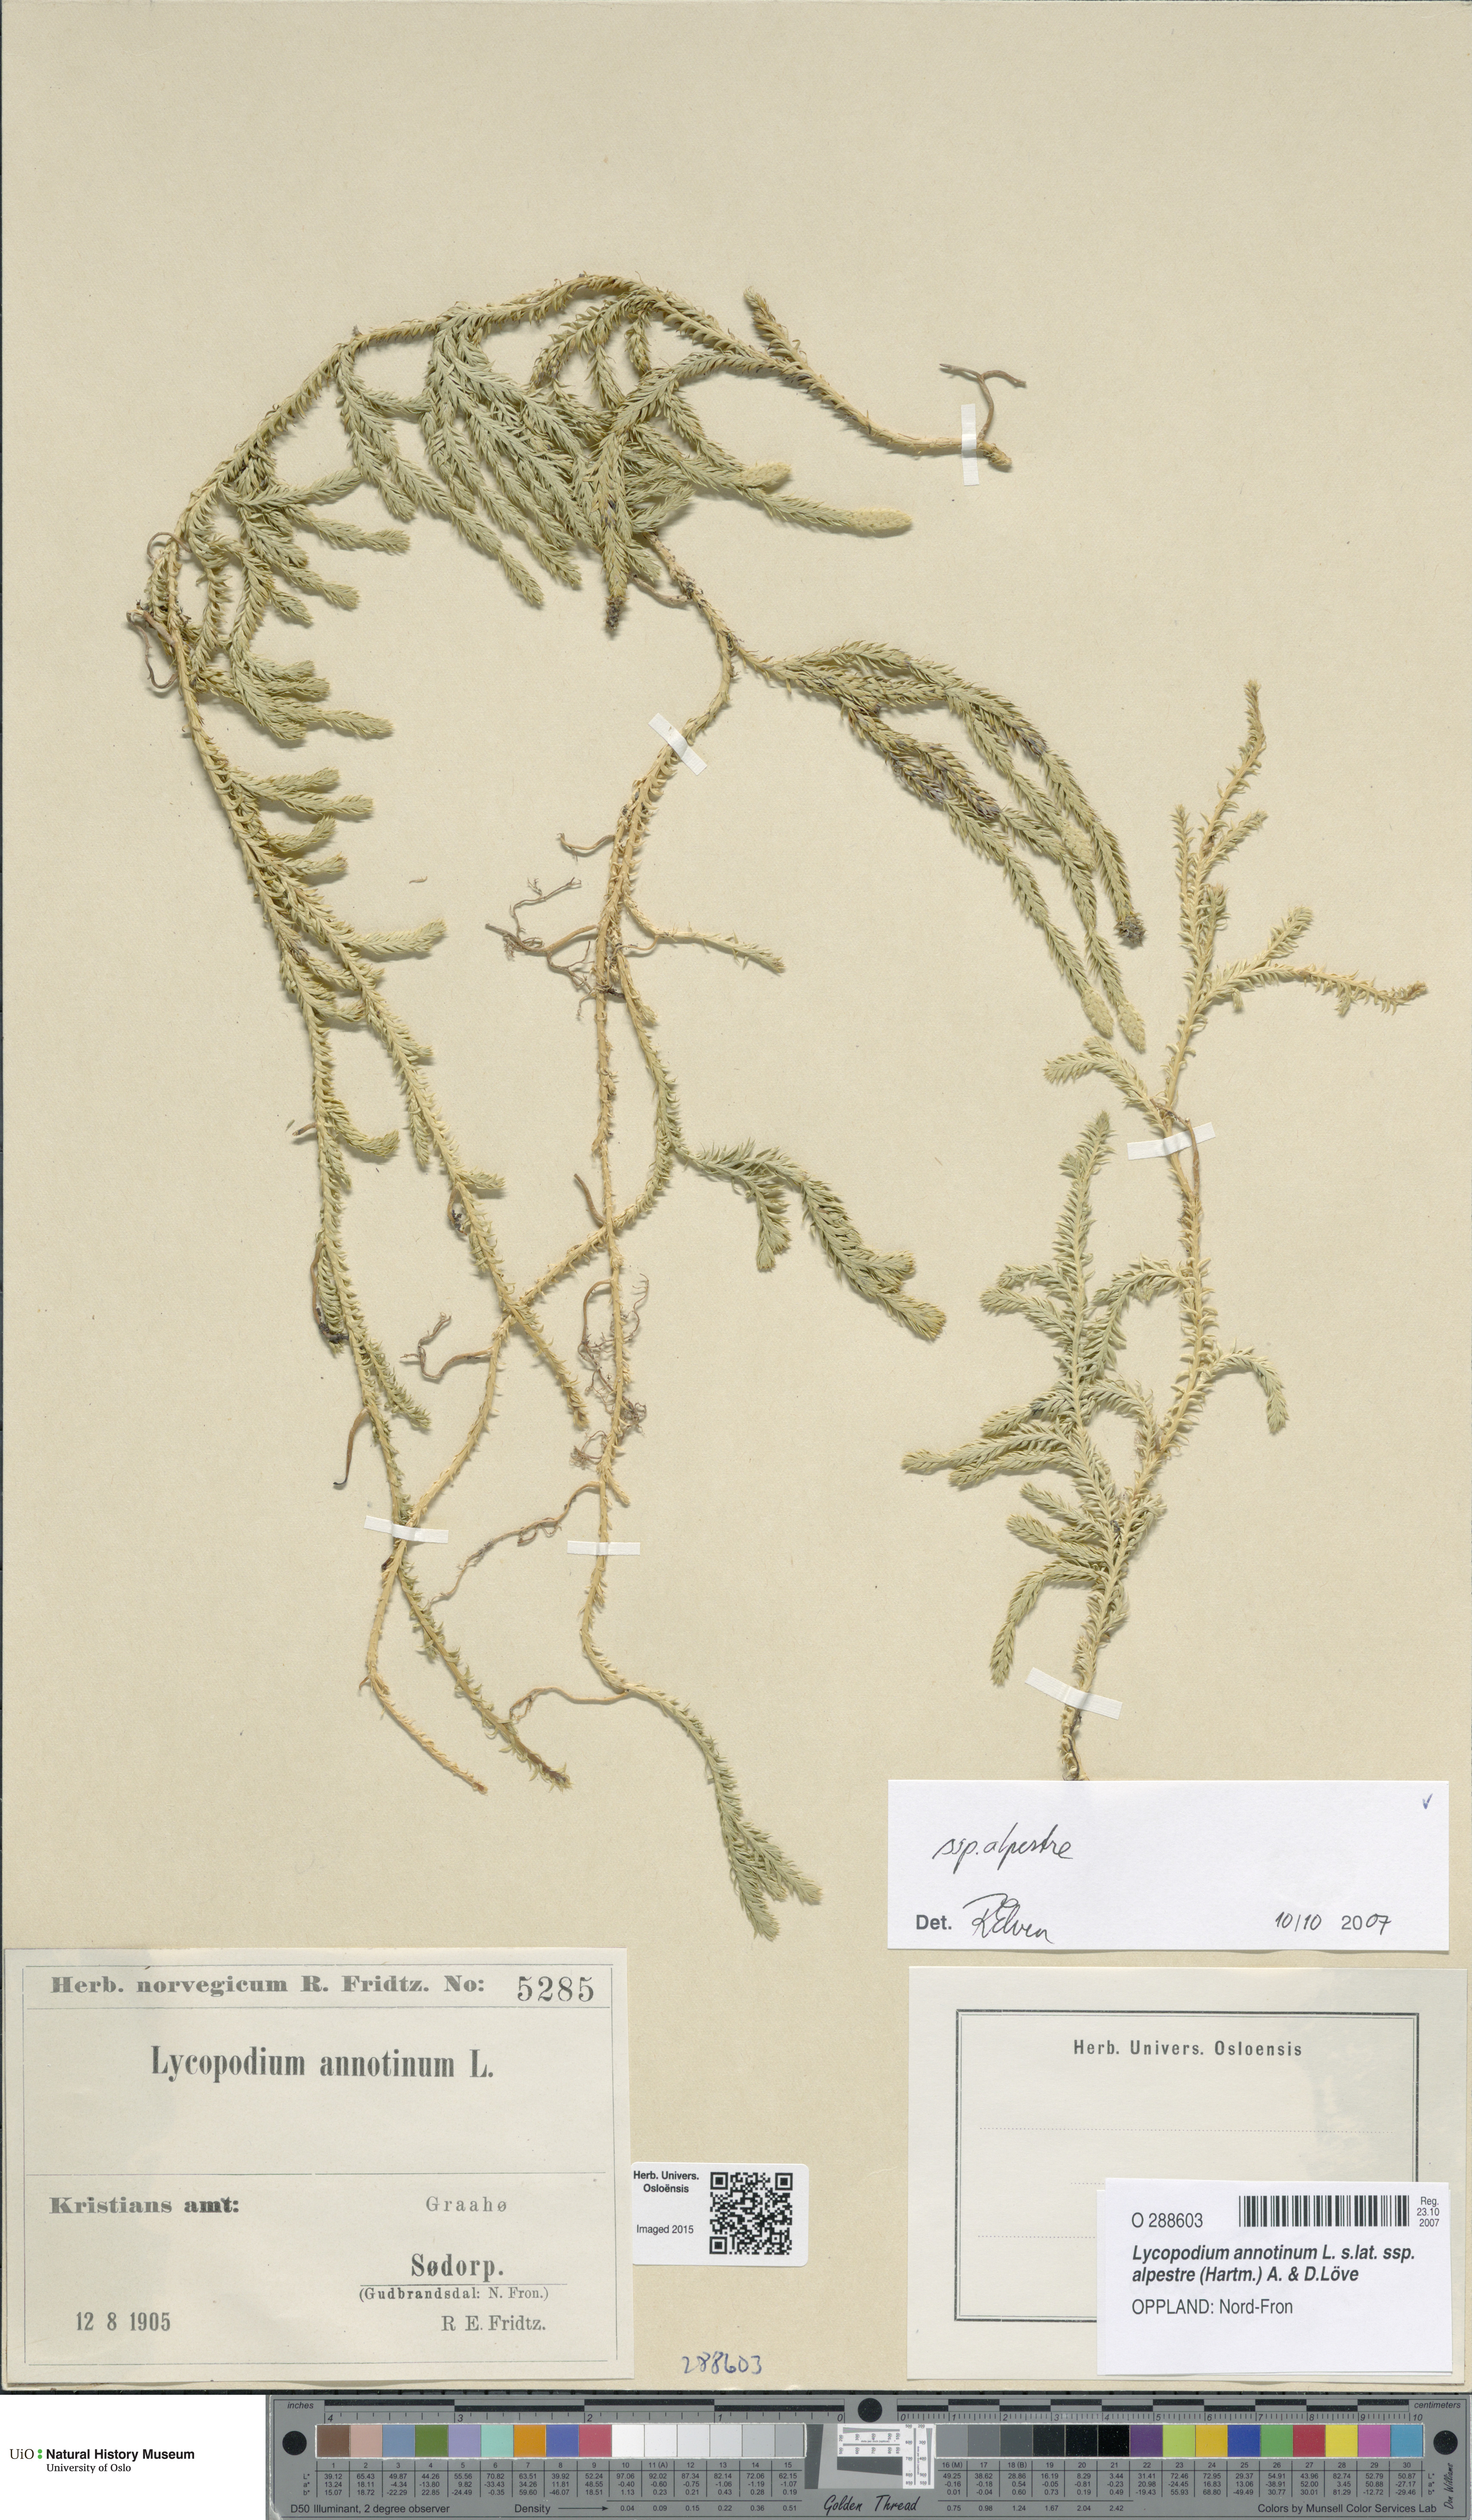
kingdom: Plantae
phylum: Tracheophyta
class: Lycopodiopsida
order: Lycopodiales
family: Lycopodiaceae
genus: Spinulum
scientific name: Spinulum annotinum
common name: Interrupted club-moss
